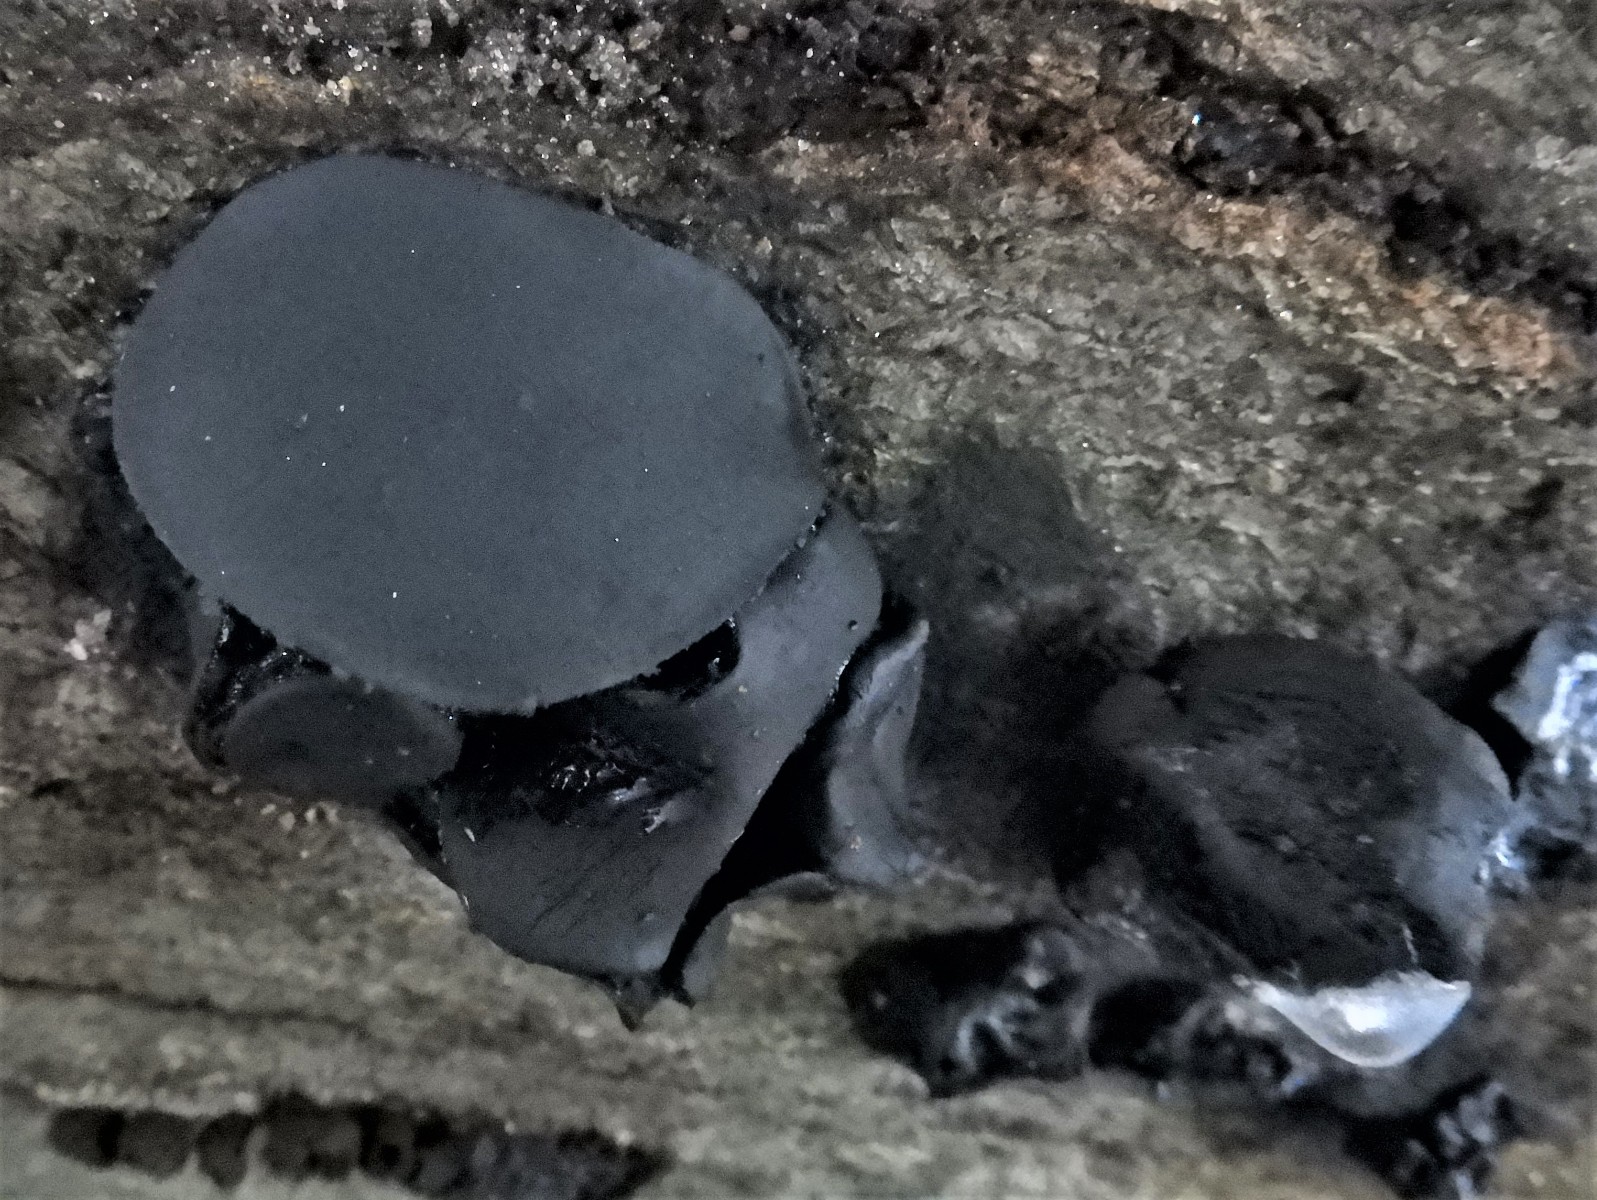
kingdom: Fungi
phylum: Ascomycota
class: Leotiomycetes
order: Phacidiales
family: Phacidiaceae
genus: Bulgaria
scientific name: Bulgaria inquinans
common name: afsmittende topsvamp
